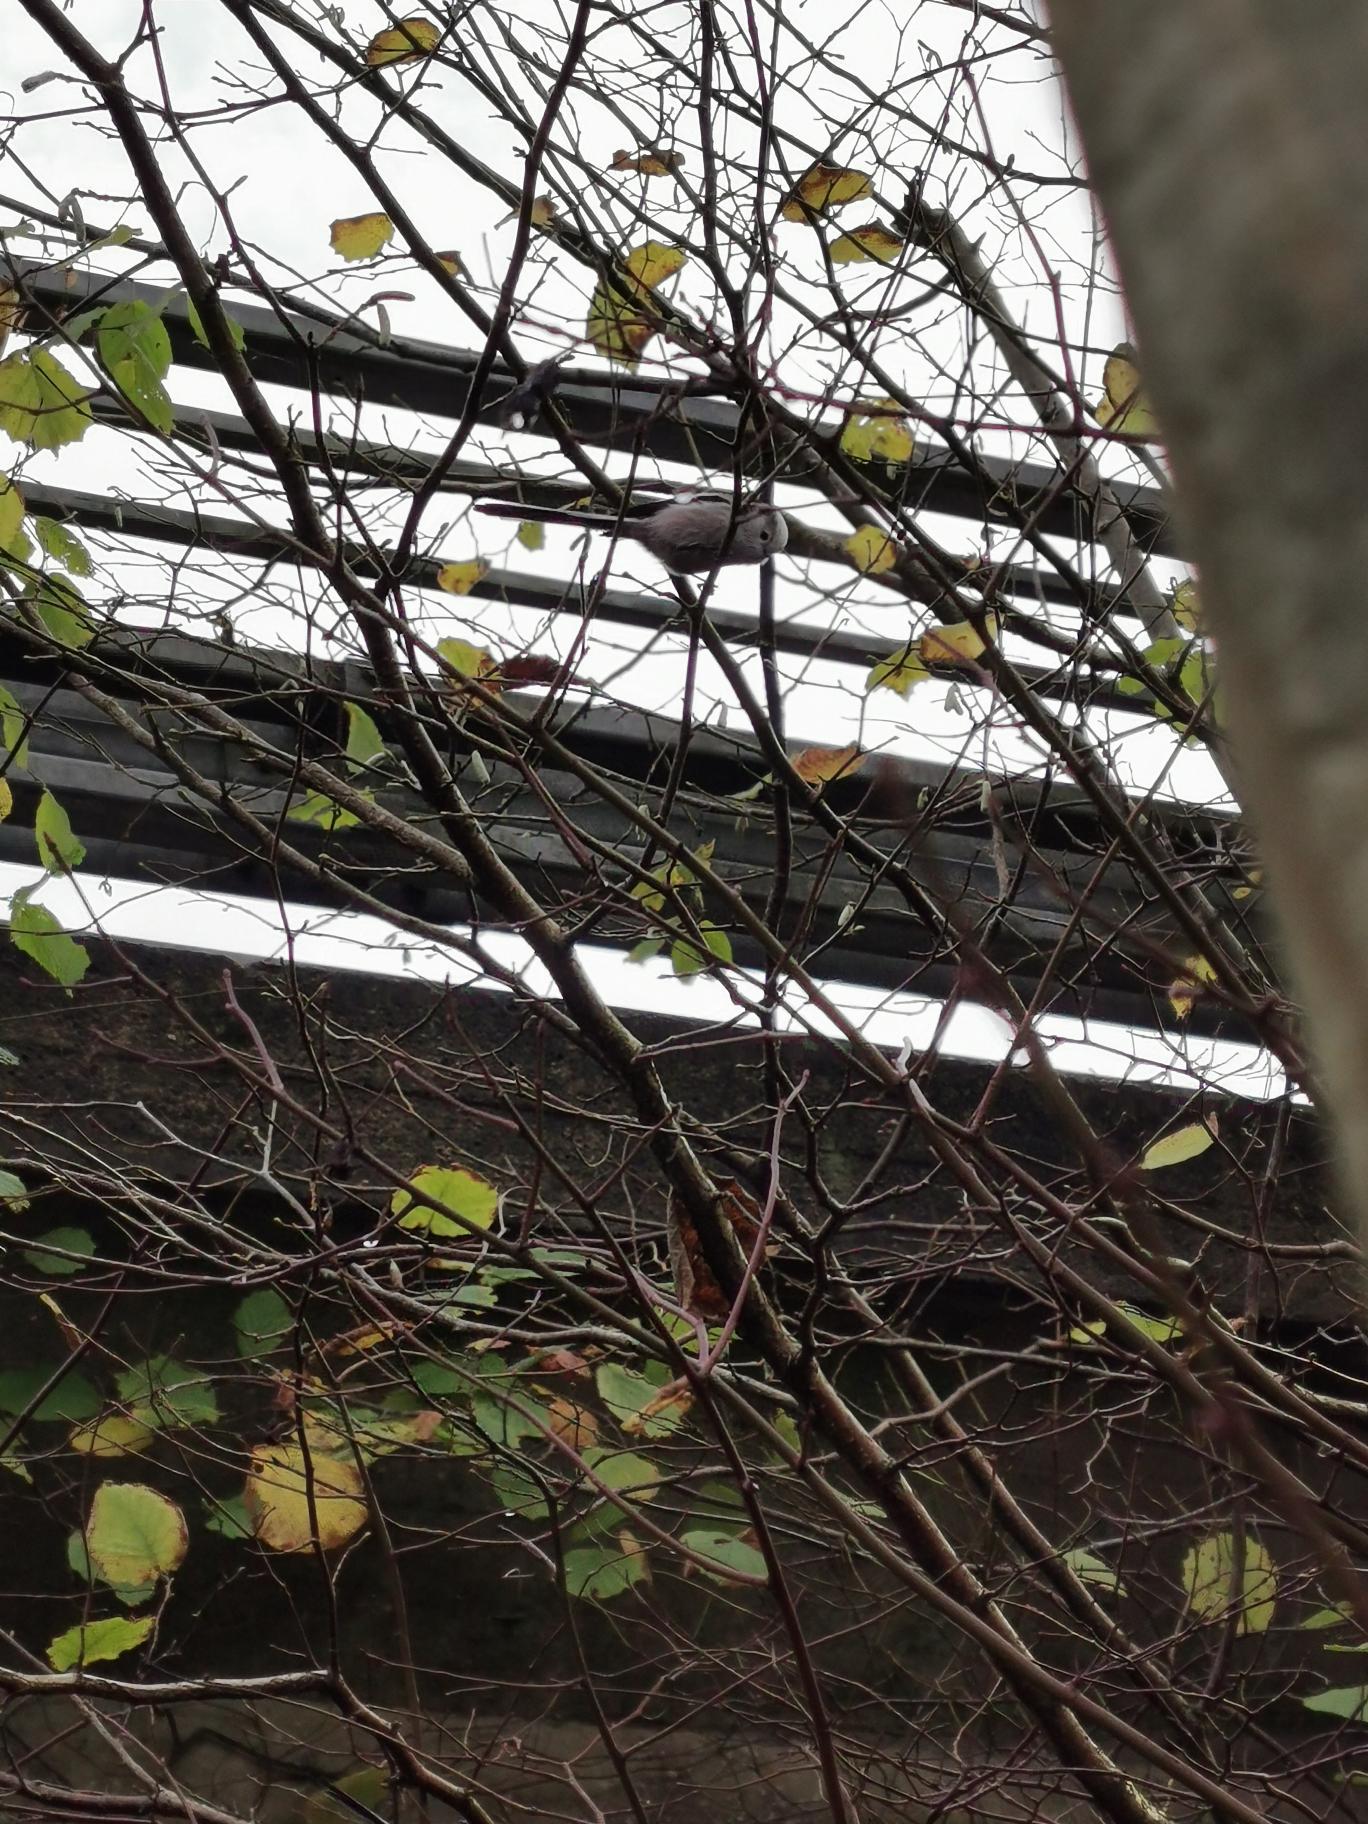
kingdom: Animalia
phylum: Chordata
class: Aves
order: Passeriformes
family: Aegithalidae
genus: Aegithalos
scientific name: Aegithalos caudatus
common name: Halemejse
